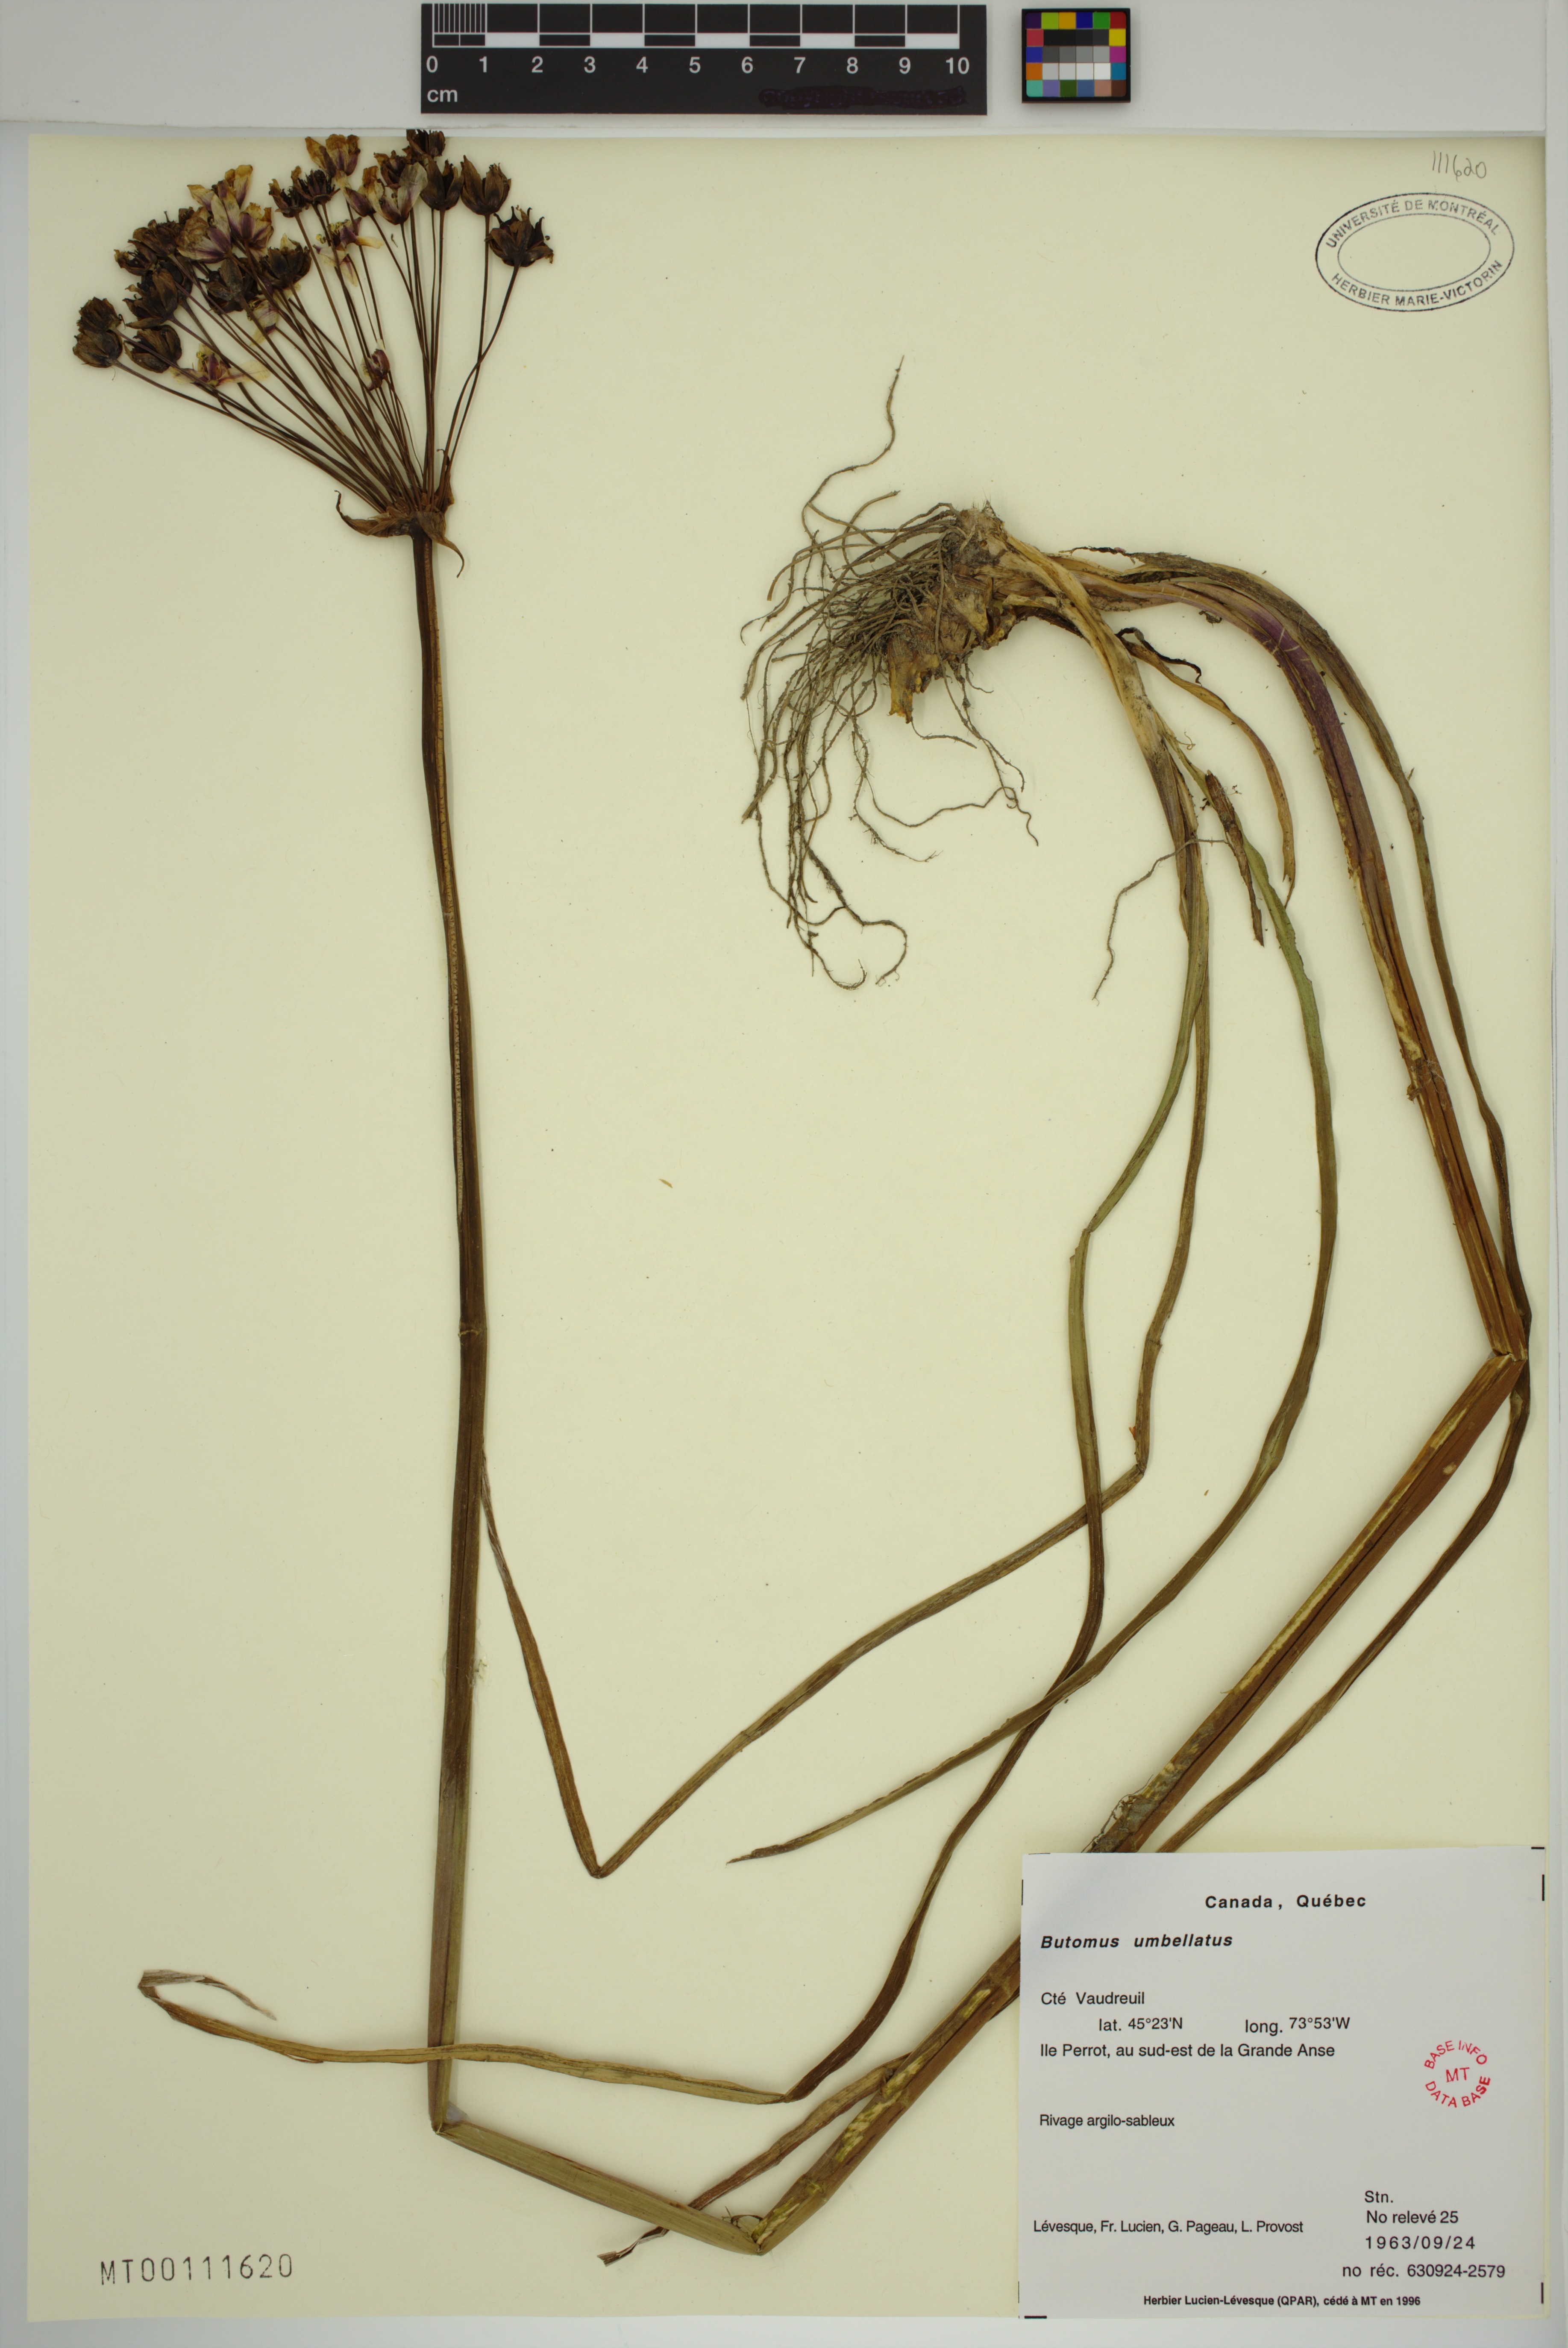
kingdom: Plantae
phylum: Tracheophyta
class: Liliopsida
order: Alismatales
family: Butomaceae
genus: Butomus
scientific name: Butomus umbellatus
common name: Flowering-rush
